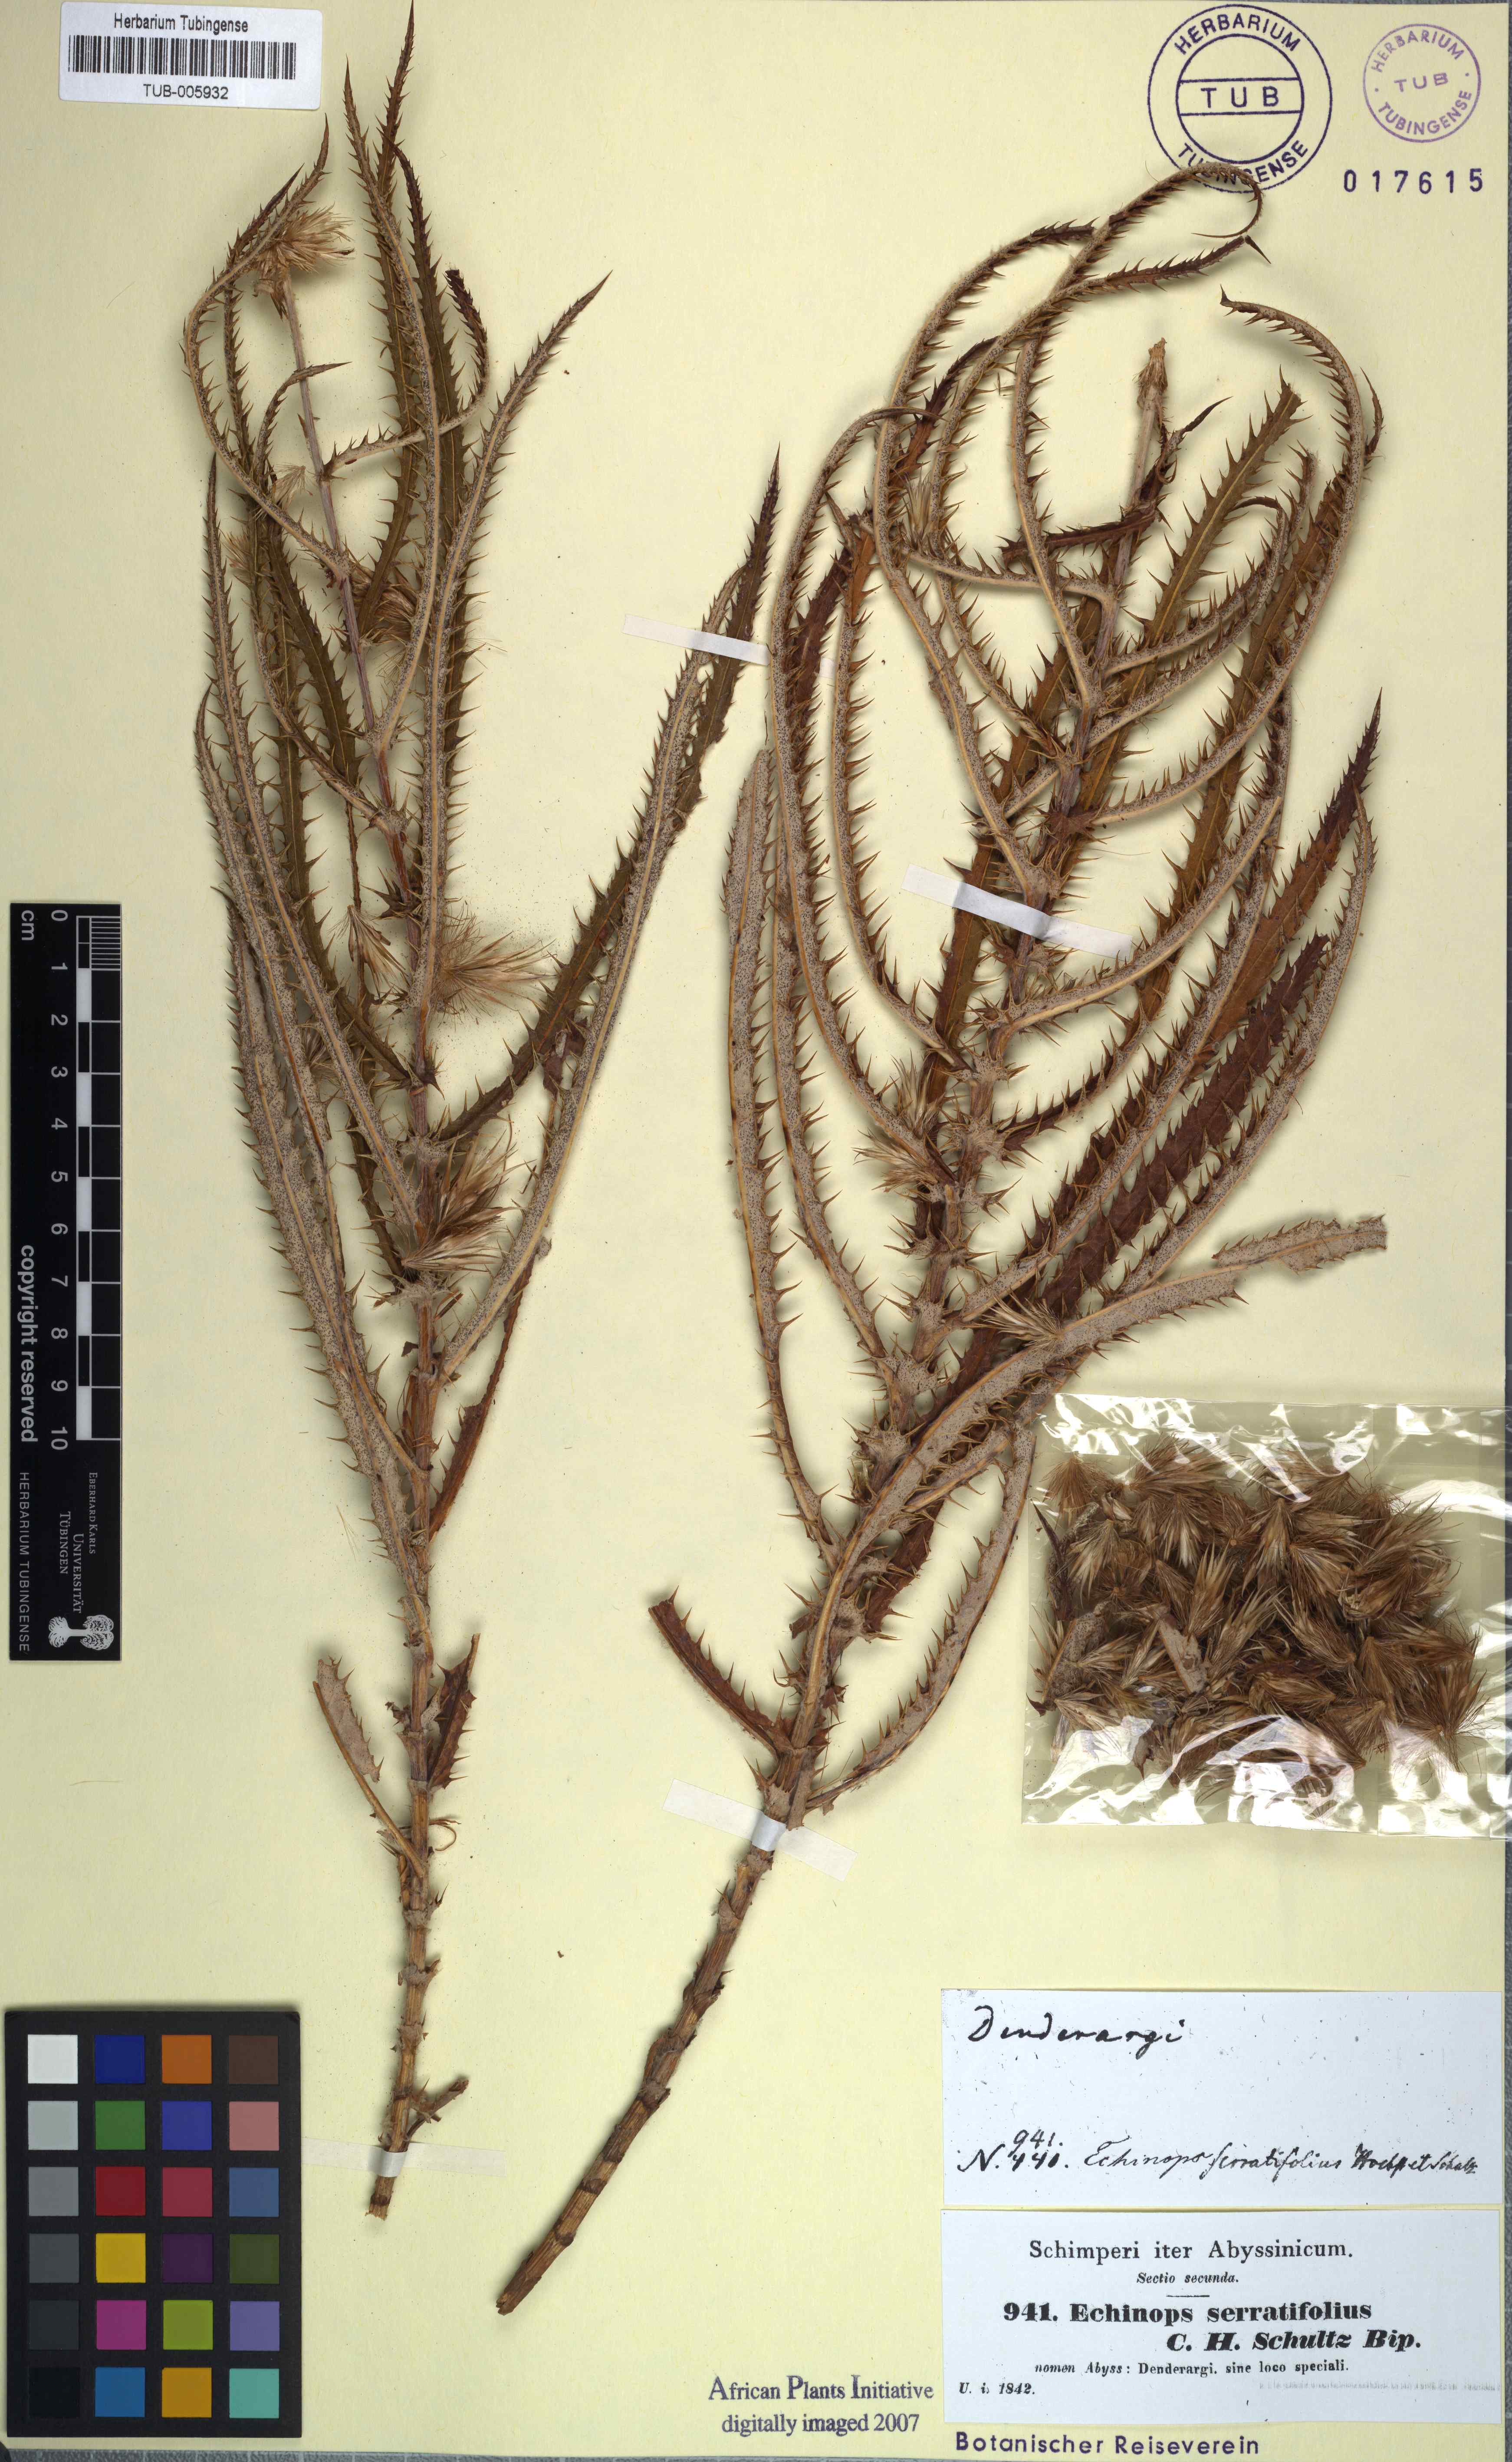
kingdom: Plantae
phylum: Tracheophyta
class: Magnoliopsida
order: Asterales
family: Asteraceae
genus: Echinops
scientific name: Echinops longifolius
